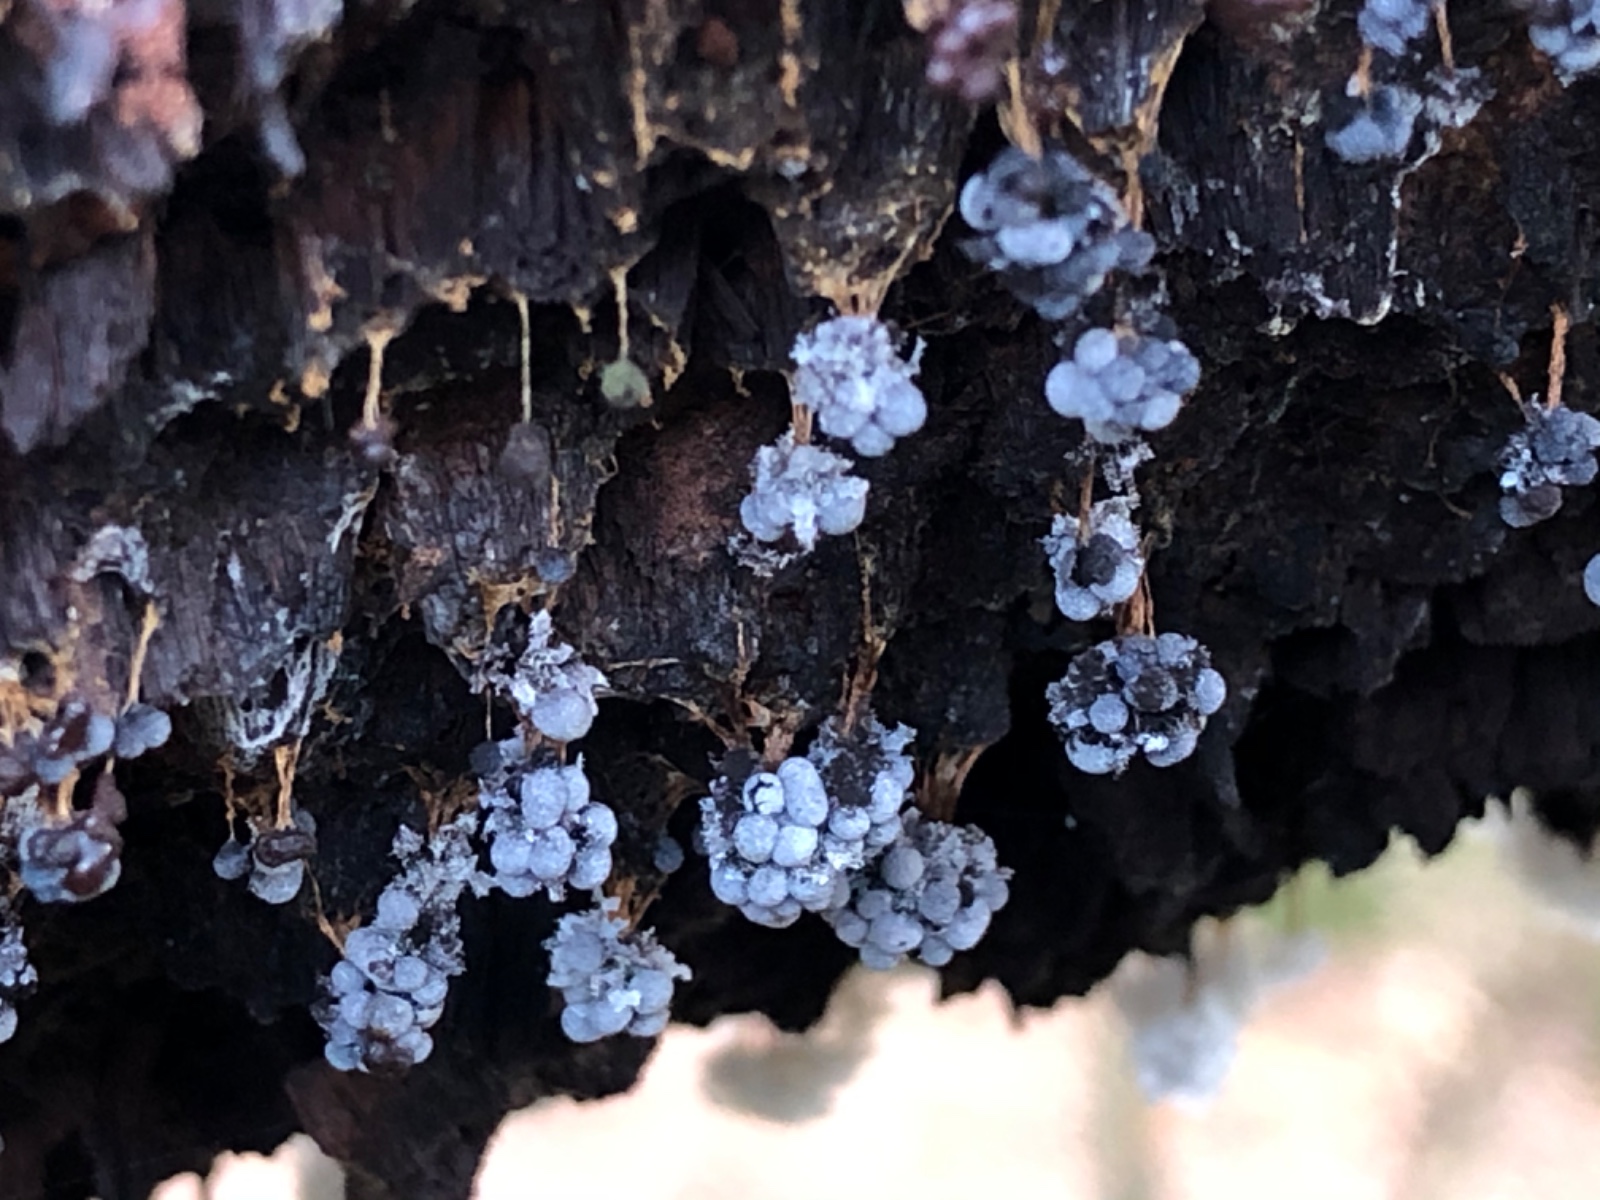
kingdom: Protozoa
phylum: Mycetozoa
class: Myxomycetes
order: Physarales
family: Physaraceae
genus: Badhamia
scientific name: Badhamia utricularis
